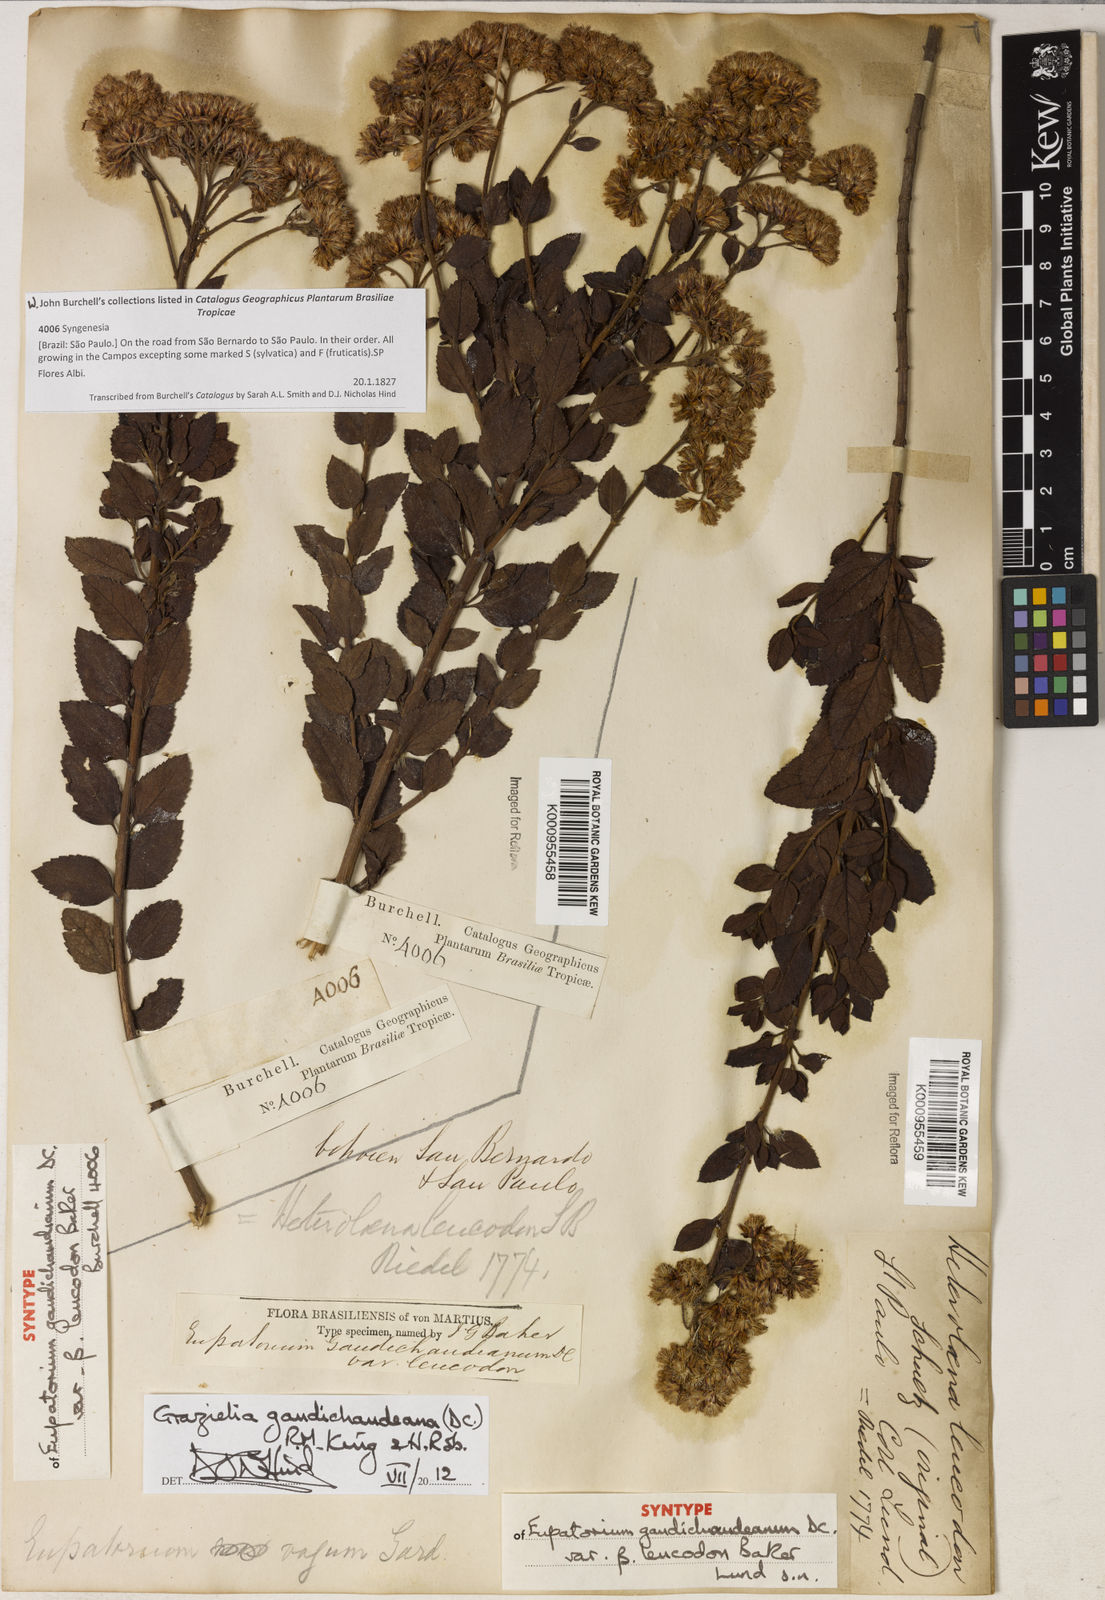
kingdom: Plantae
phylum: Tracheophyta
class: Magnoliopsida
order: Asterales
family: Asteraceae
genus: Grazielia
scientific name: Grazielia gaudichaudeana
